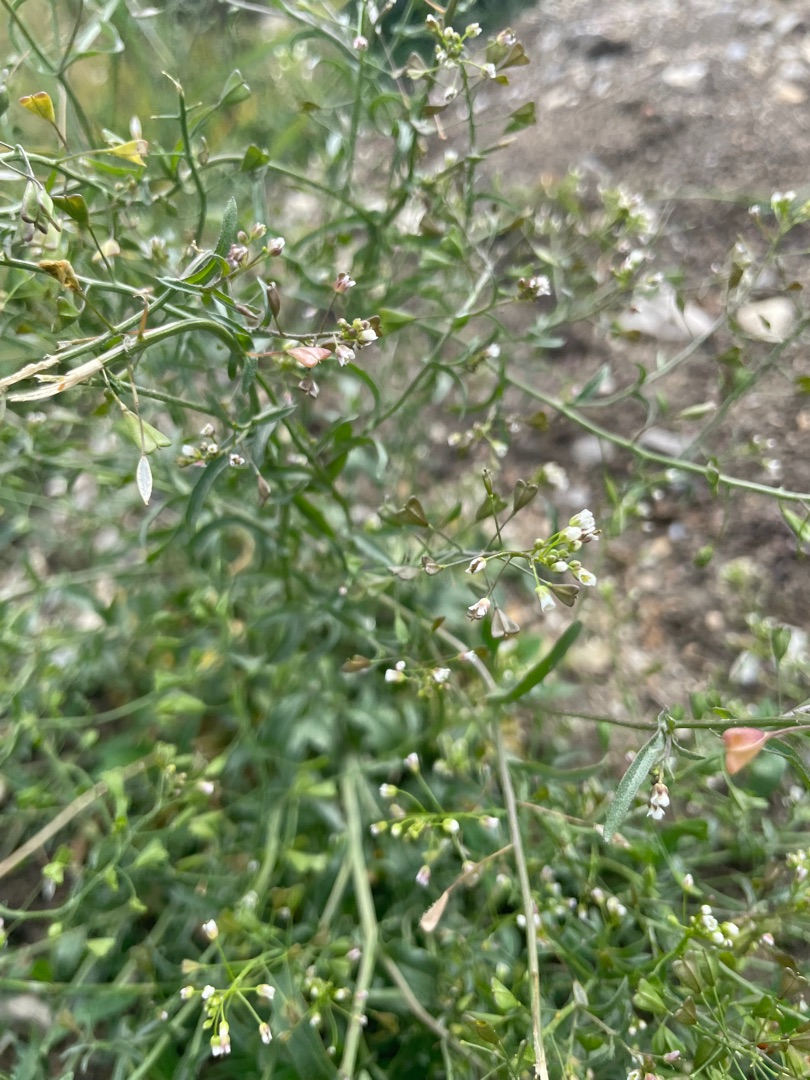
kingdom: Plantae
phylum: Tracheophyta
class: Magnoliopsida
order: Brassicales
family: Brassicaceae
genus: Capsella
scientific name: Capsella bursa-pastoris
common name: Hyrdetaske
